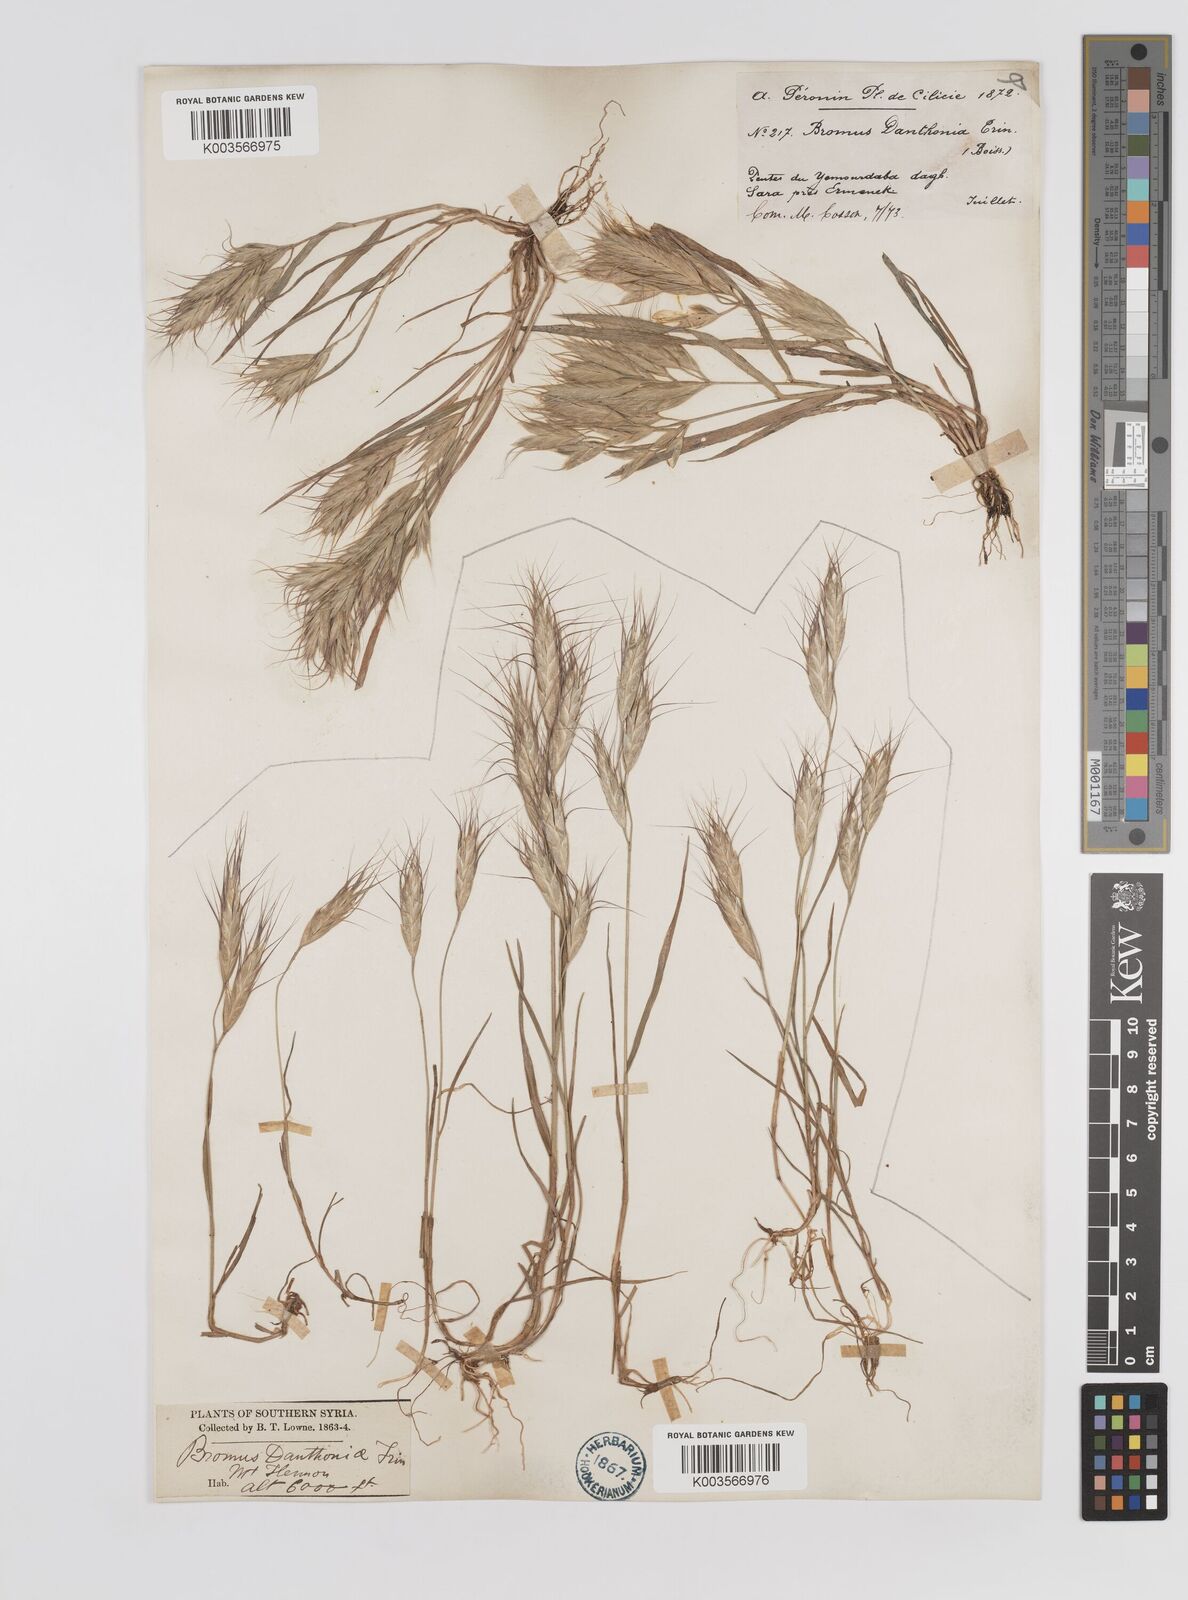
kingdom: Plantae
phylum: Tracheophyta
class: Liliopsida
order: Poales
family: Poaceae
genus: Bromus
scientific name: Bromus danthoniae
